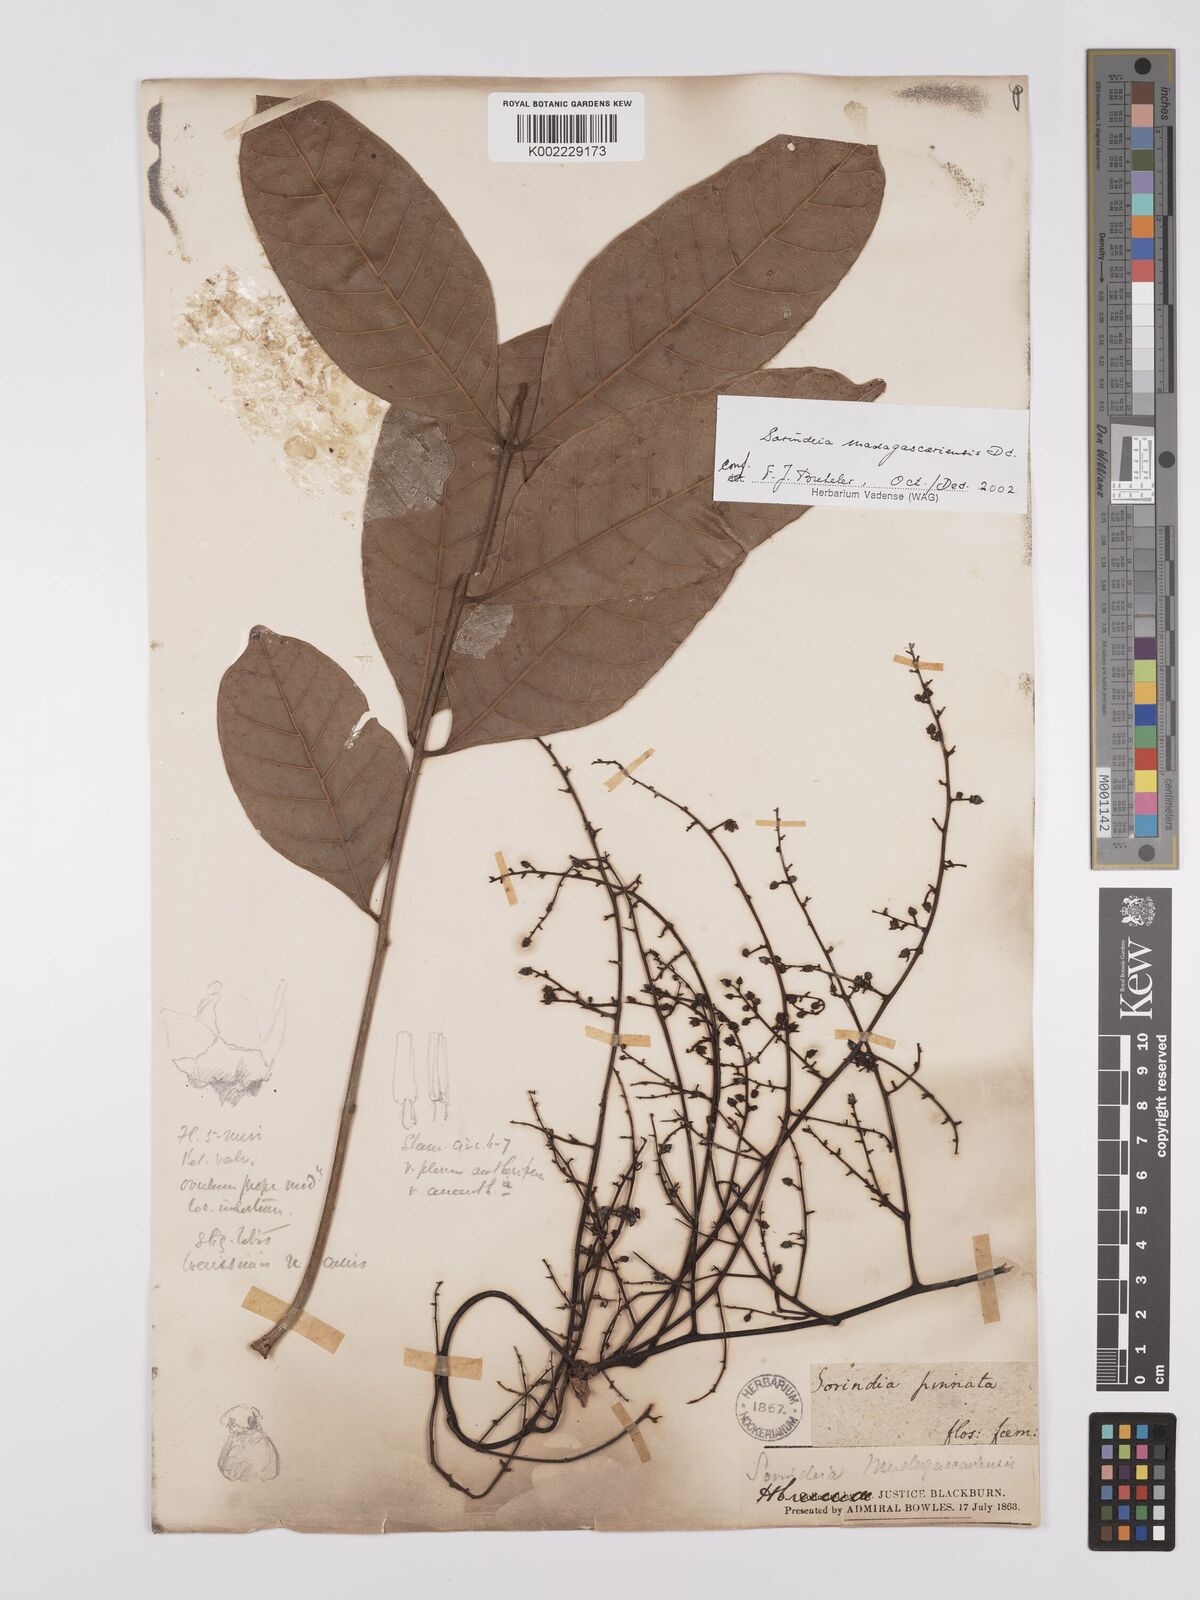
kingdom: Plantae
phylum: Tracheophyta
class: Magnoliopsida
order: Sapindales
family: Anacardiaceae
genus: Sorindeia
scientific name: Sorindeia madagascariensis
